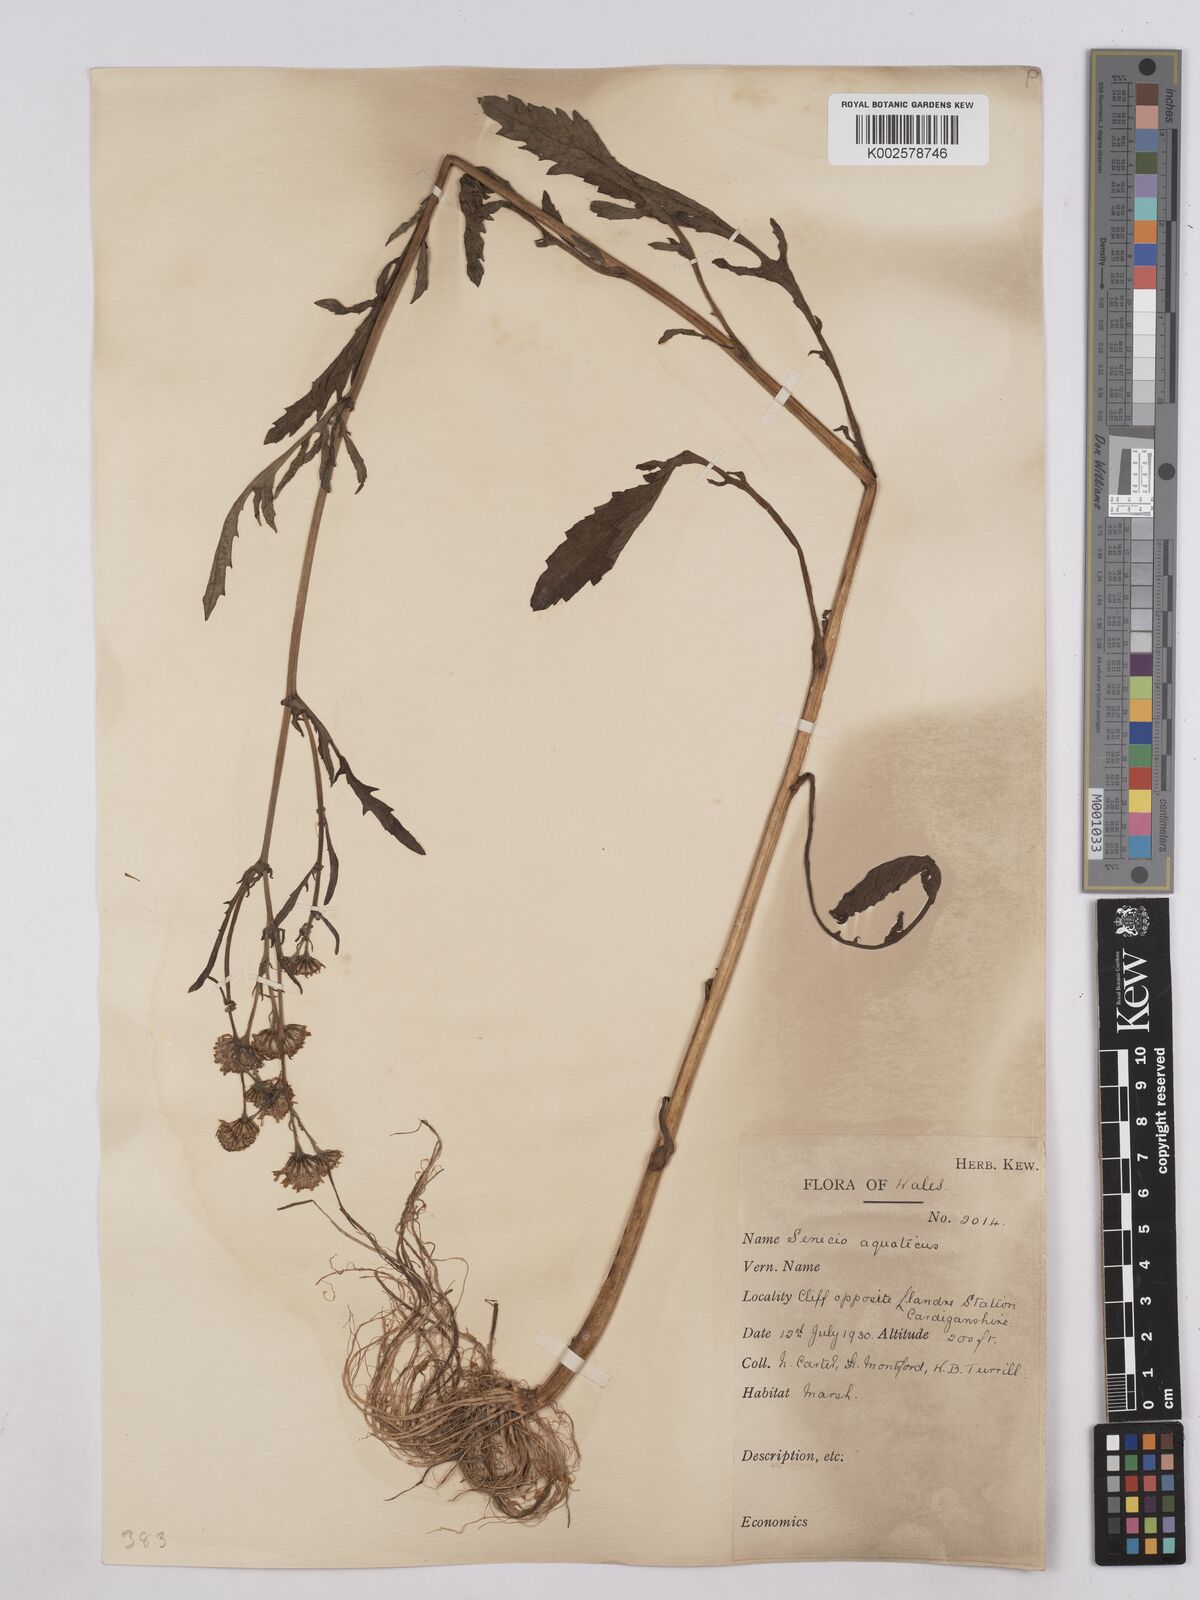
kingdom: Plantae
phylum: Tracheophyta
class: Magnoliopsida
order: Asterales
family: Asteraceae
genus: Jacobaea
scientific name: Jacobaea aquatica
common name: Water ragwort
